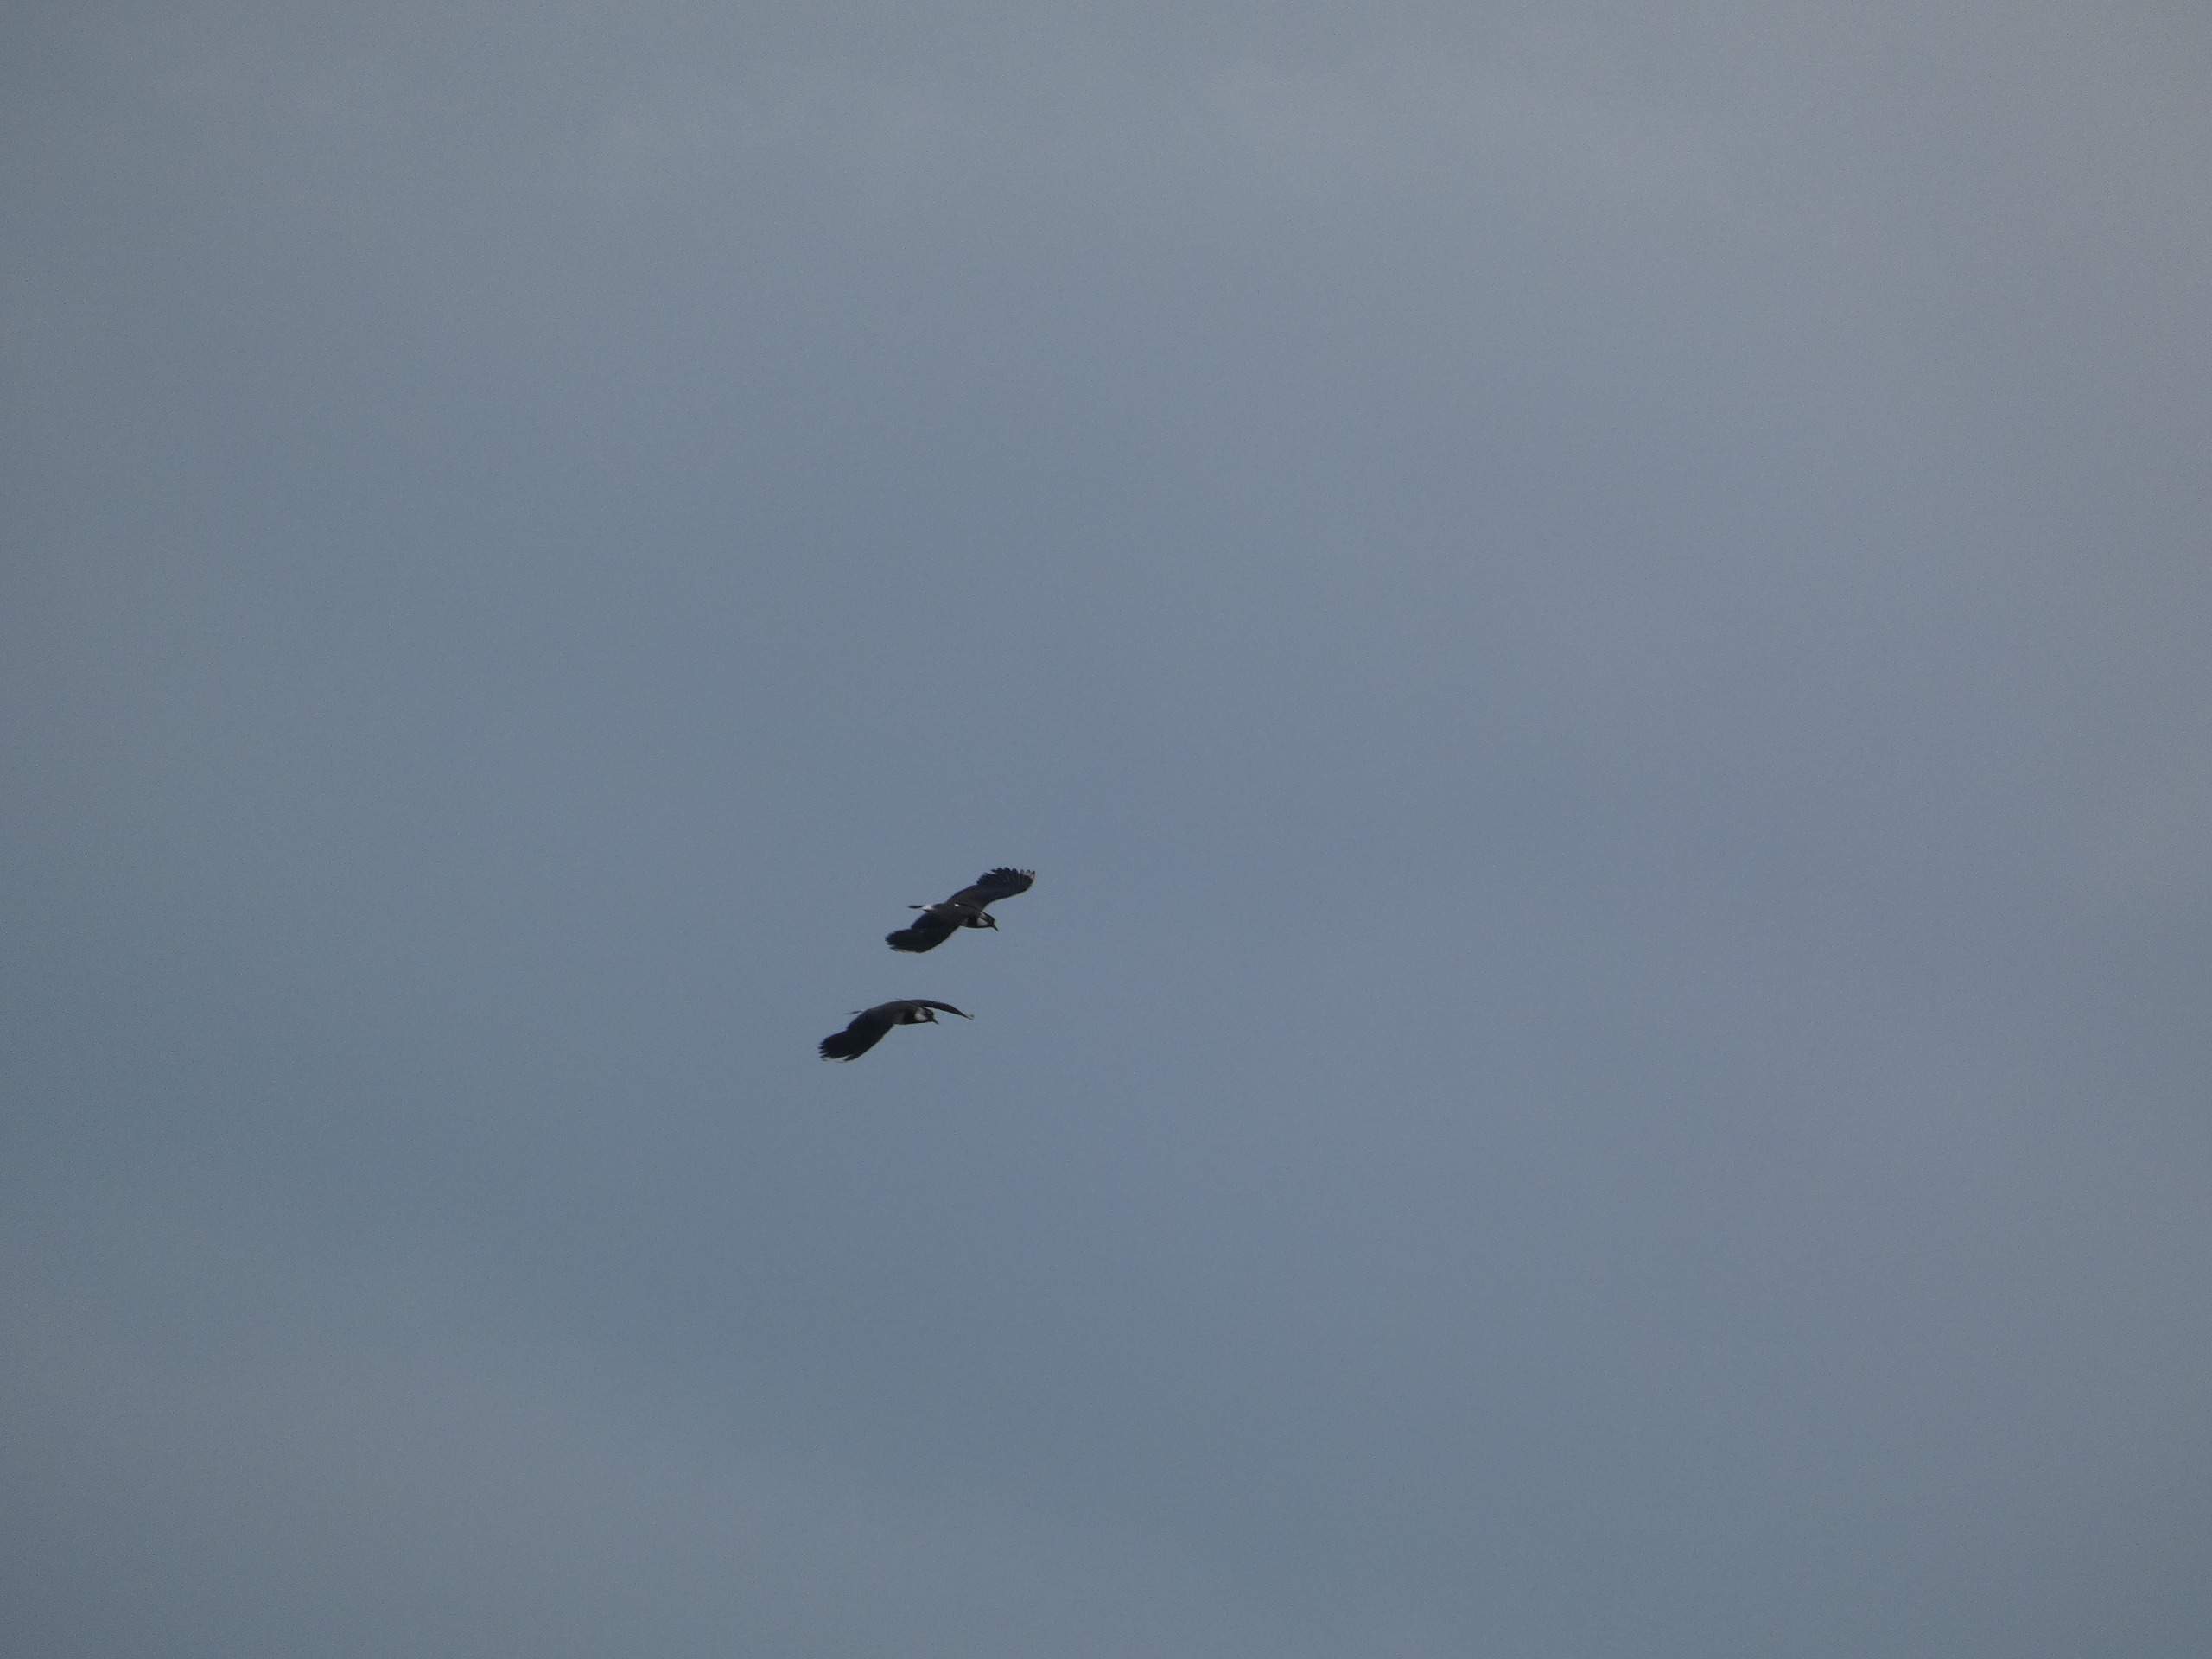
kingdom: Animalia
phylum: Chordata
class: Aves
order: Charadriiformes
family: Charadriidae
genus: Vanellus
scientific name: Vanellus vanellus
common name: Vibe
